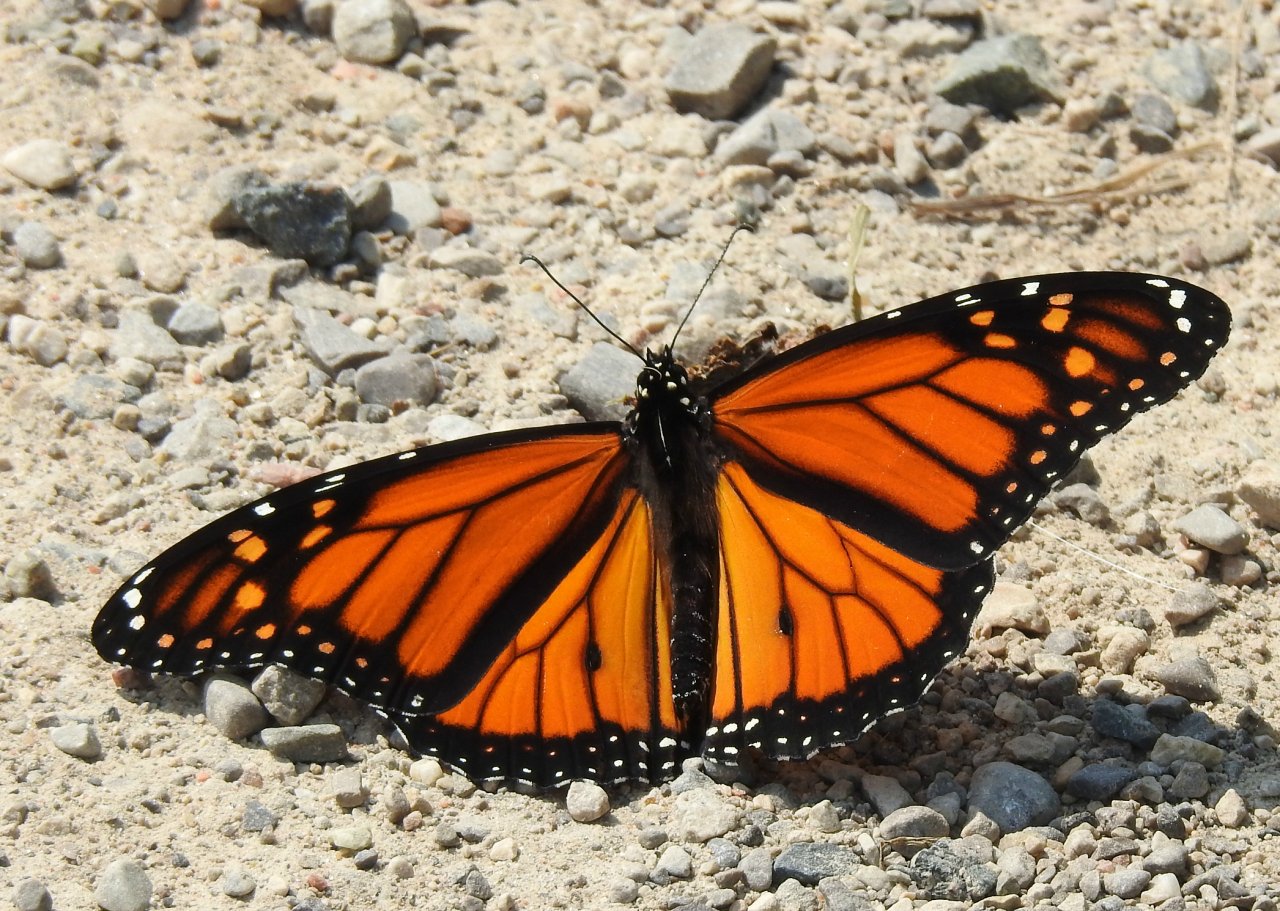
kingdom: Animalia
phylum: Arthropoda
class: Insecta
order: Lepidoptera
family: Nymphalidae
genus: Danaus
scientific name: Danaus plexippus
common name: Monarch
